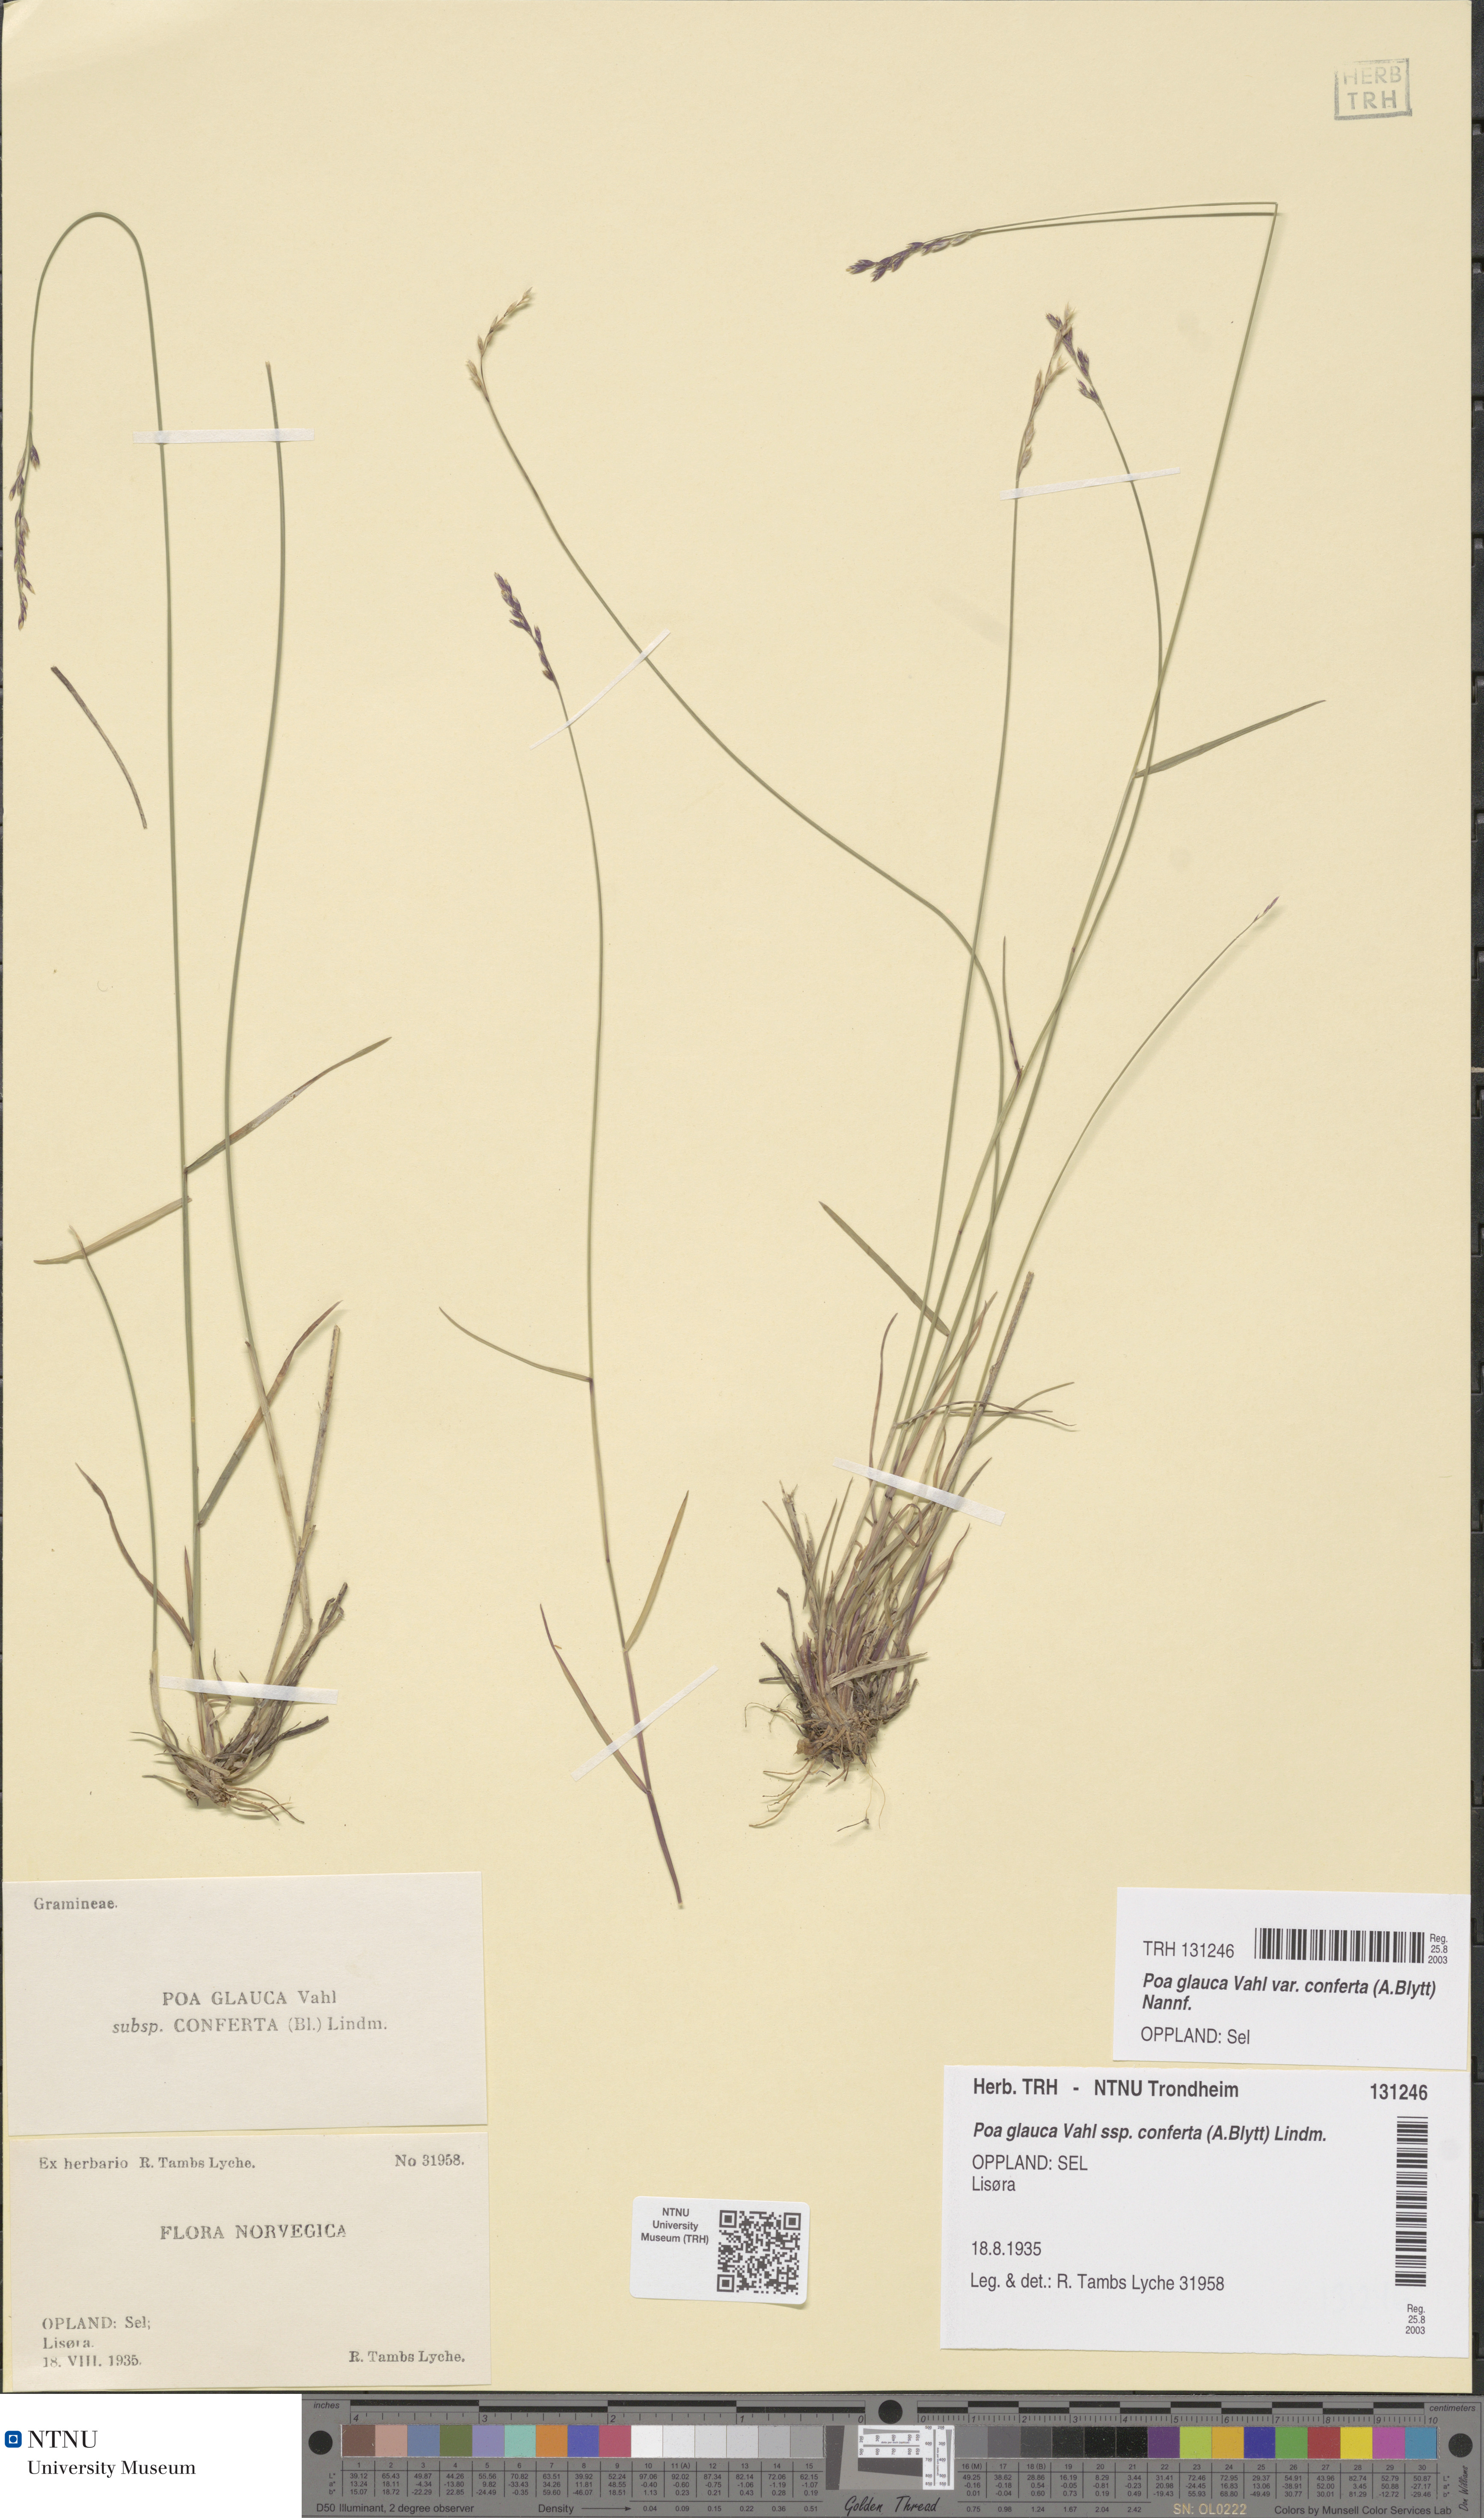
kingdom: Plantae
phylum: Tracheophyta
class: Liliopsida
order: Poales
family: Poaceae
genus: Poa
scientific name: Poa glauca
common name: Glaucous bluegrass
